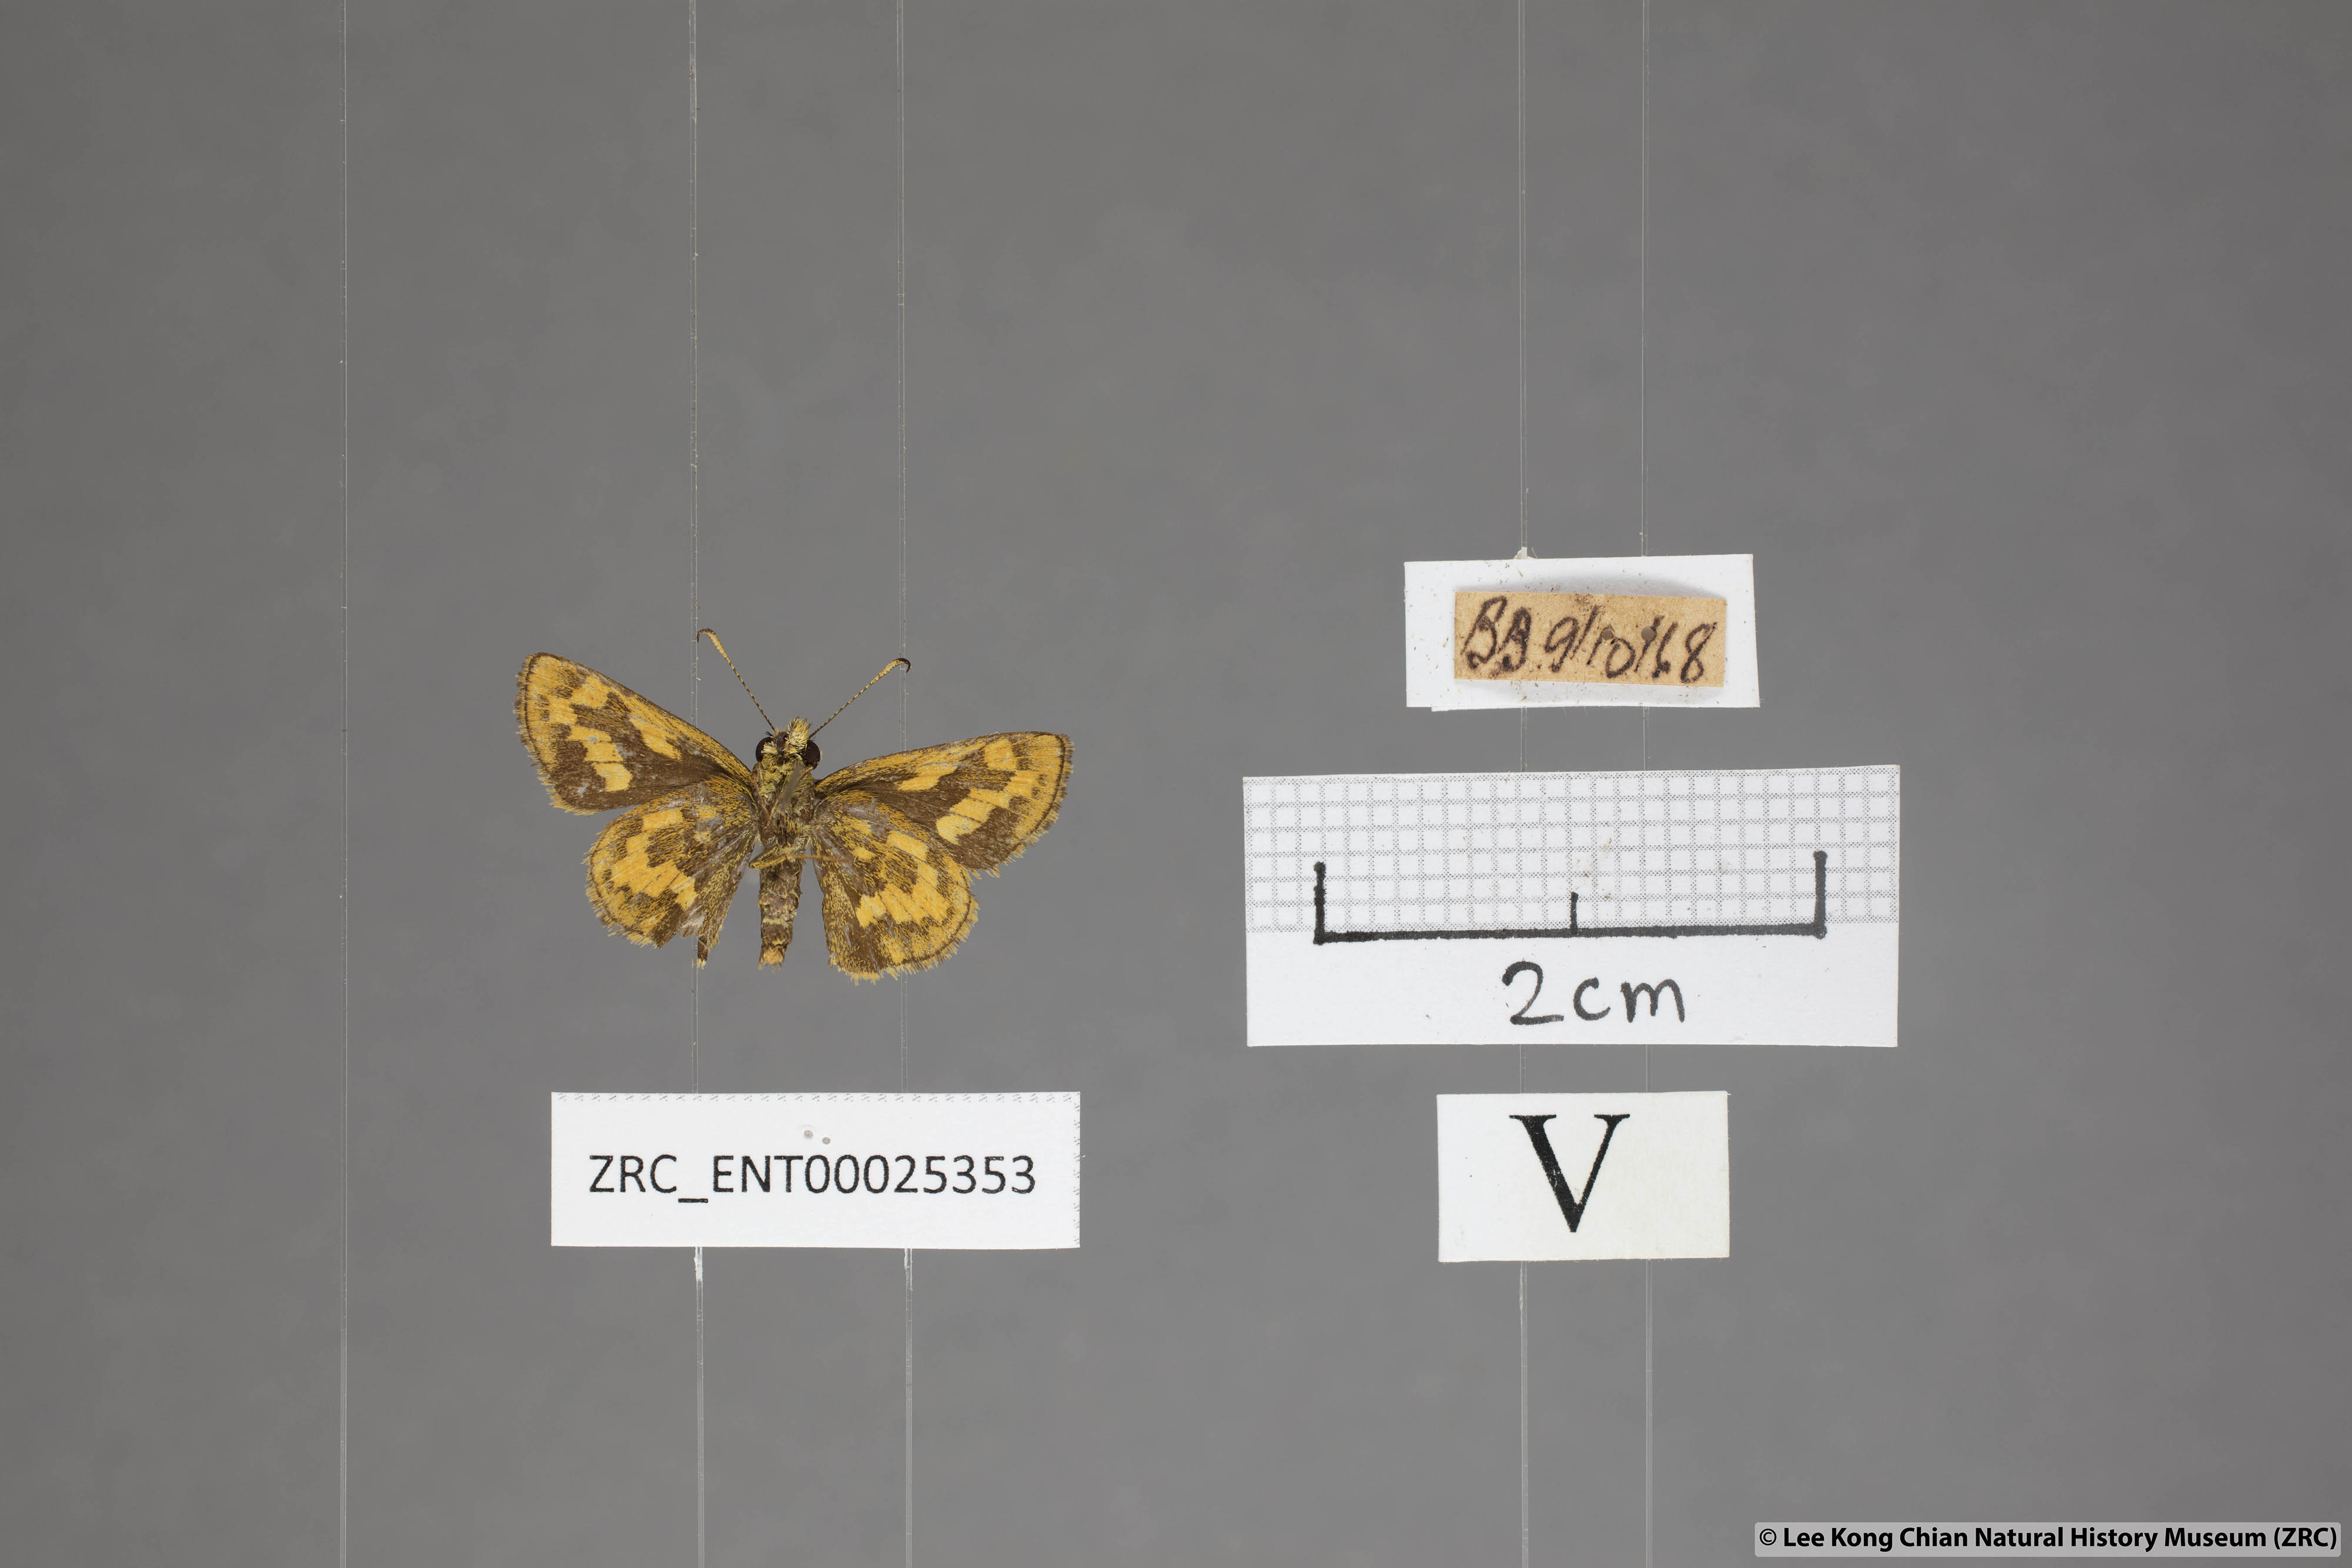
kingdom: Animalia
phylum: Arthropoda
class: Insecta
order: Lepidoptera
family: Hesperiidae
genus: Potanthus
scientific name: Potanthus confucius
